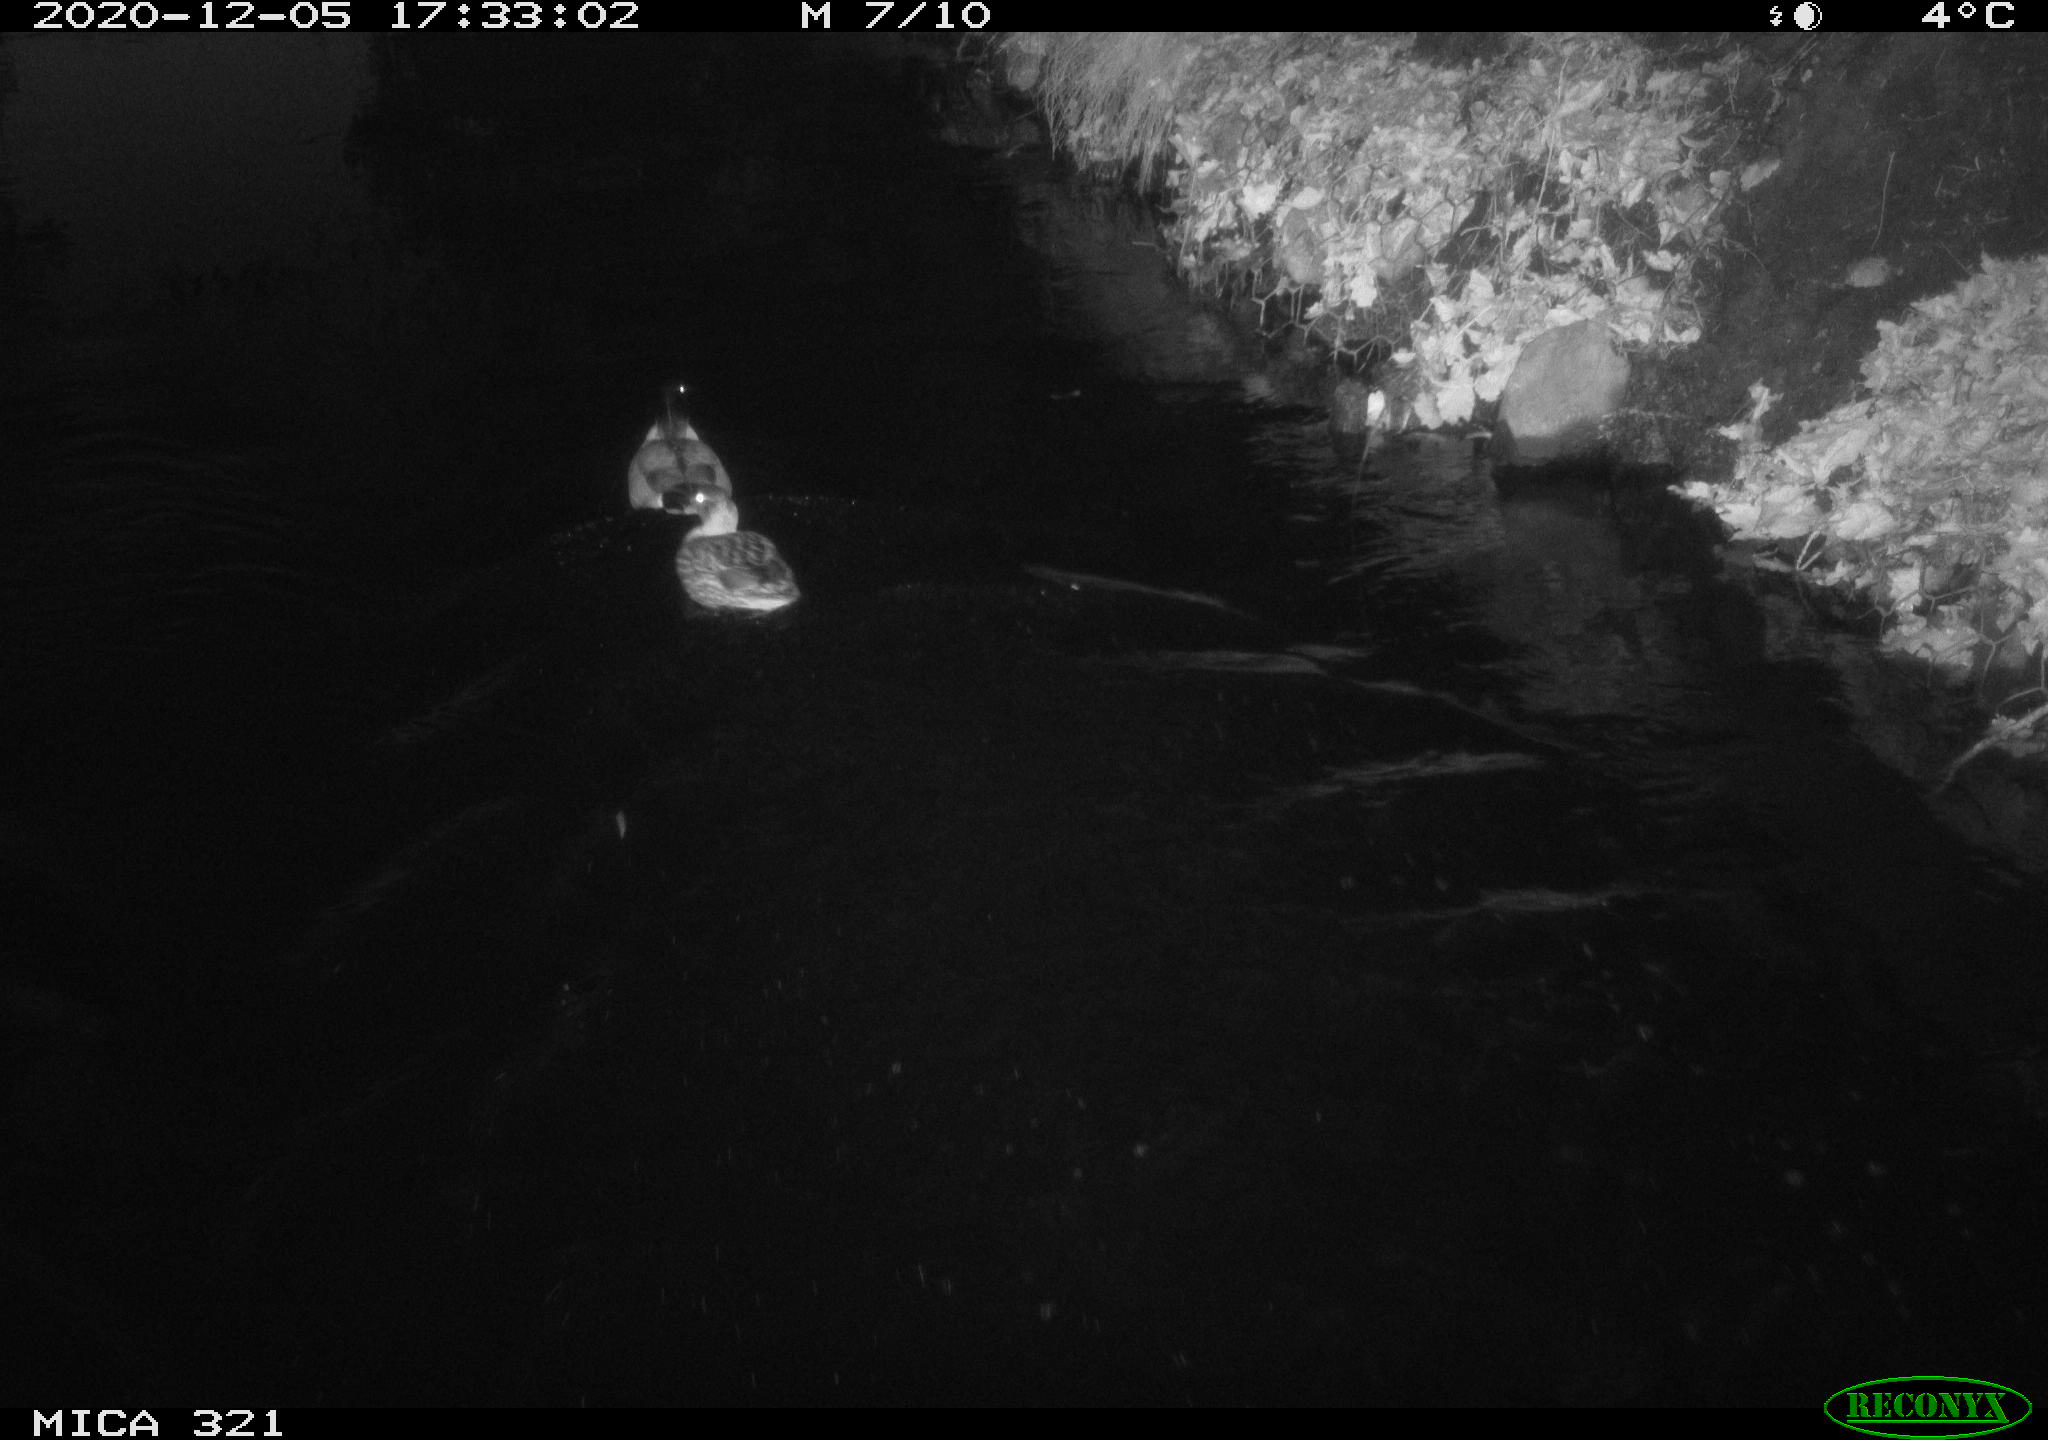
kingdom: Animalia
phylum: Chordata
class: Aves
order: Anseriformes
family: Anatidae
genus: Anas
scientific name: Anas platyrhynchos
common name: Mallard
